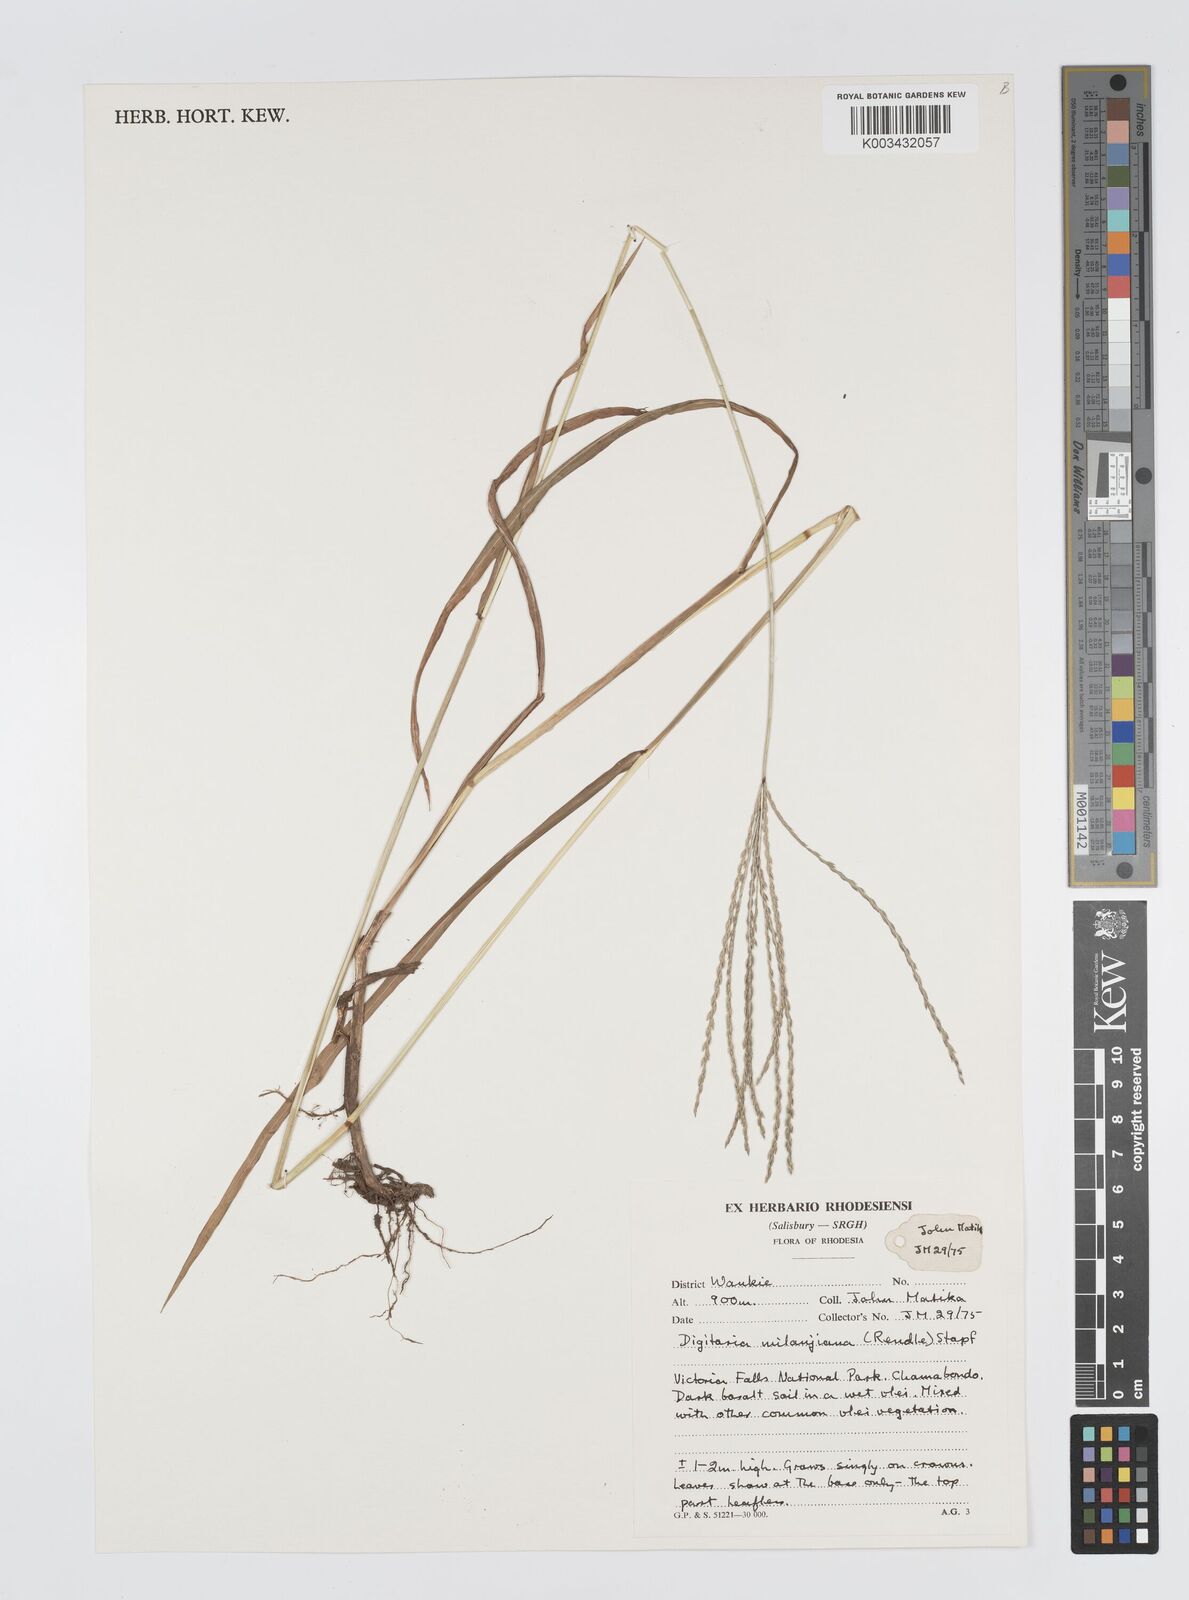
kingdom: Plantae
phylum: Tracheophyta
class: Liliopsida
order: Poales
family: Poaceae
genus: Digitaria
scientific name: Digitaria milanjiana
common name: Madagascar crabgrass
